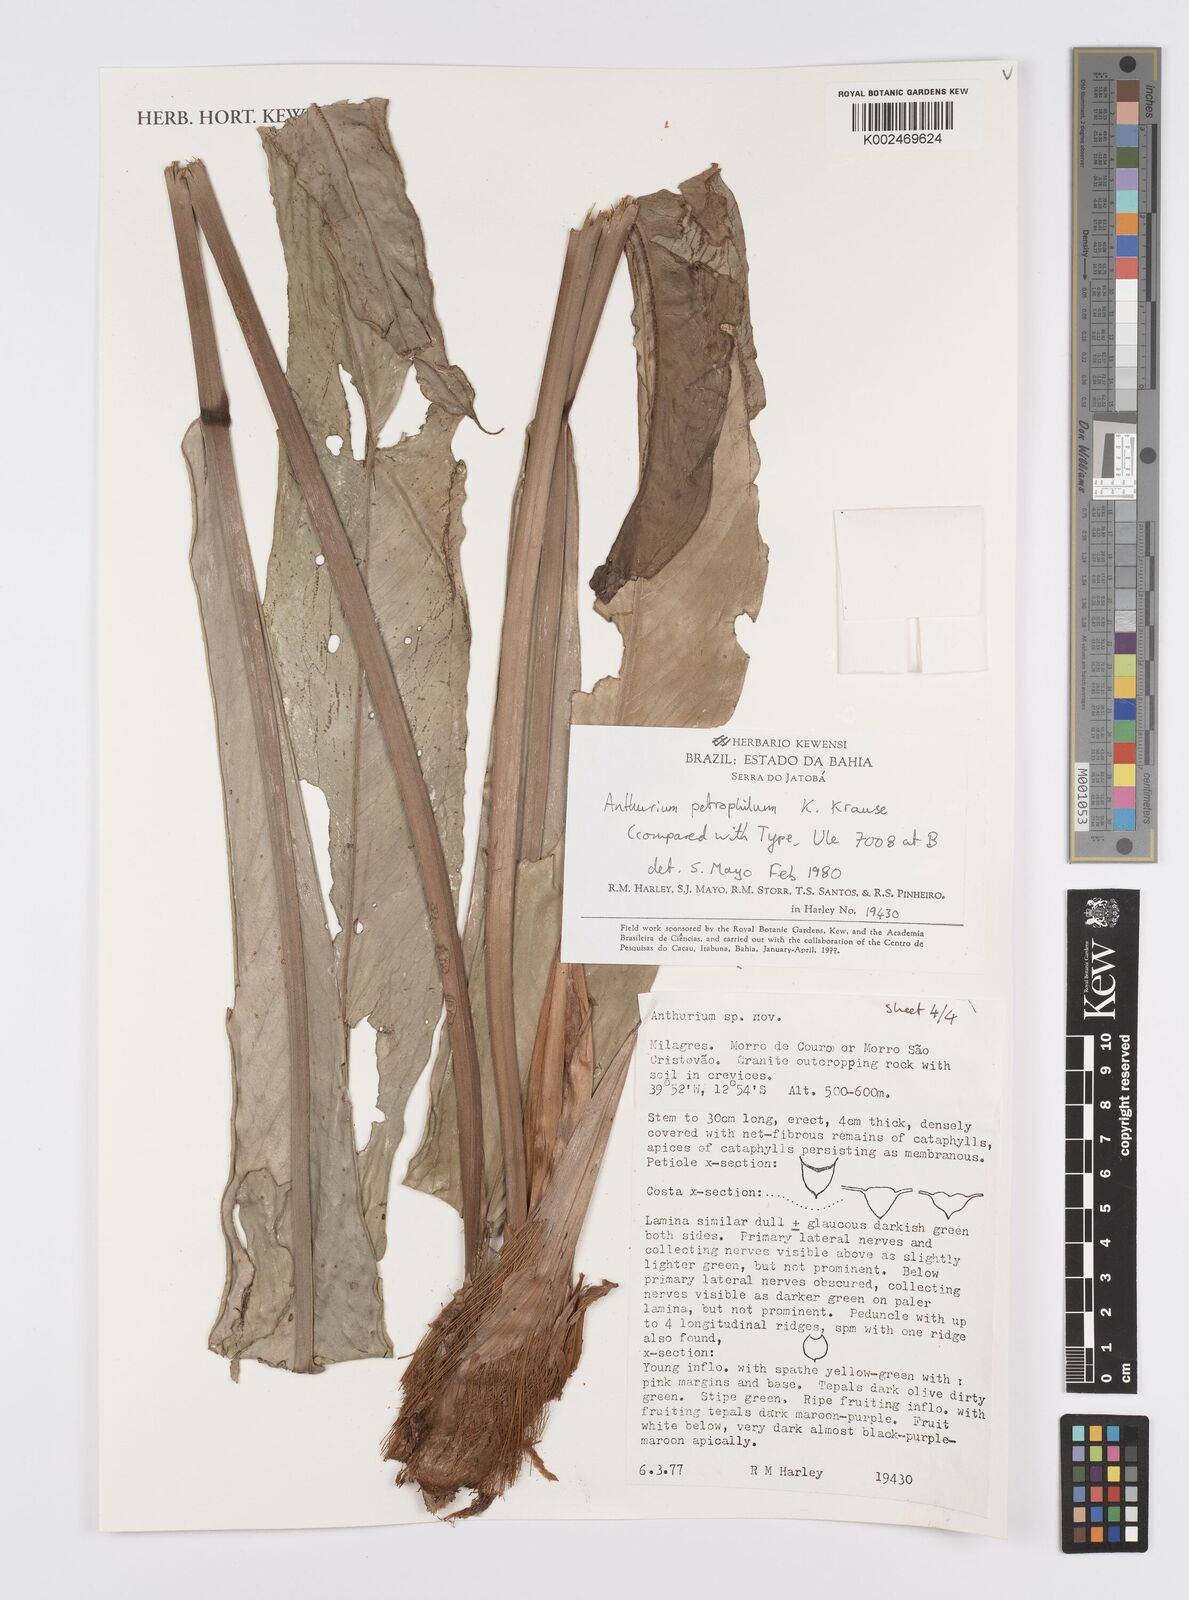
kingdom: Plantae
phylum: Tracheophyta
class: Liliopsida
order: Alismatales
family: Araceae
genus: Anthurium
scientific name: Anthurium petrophilum
